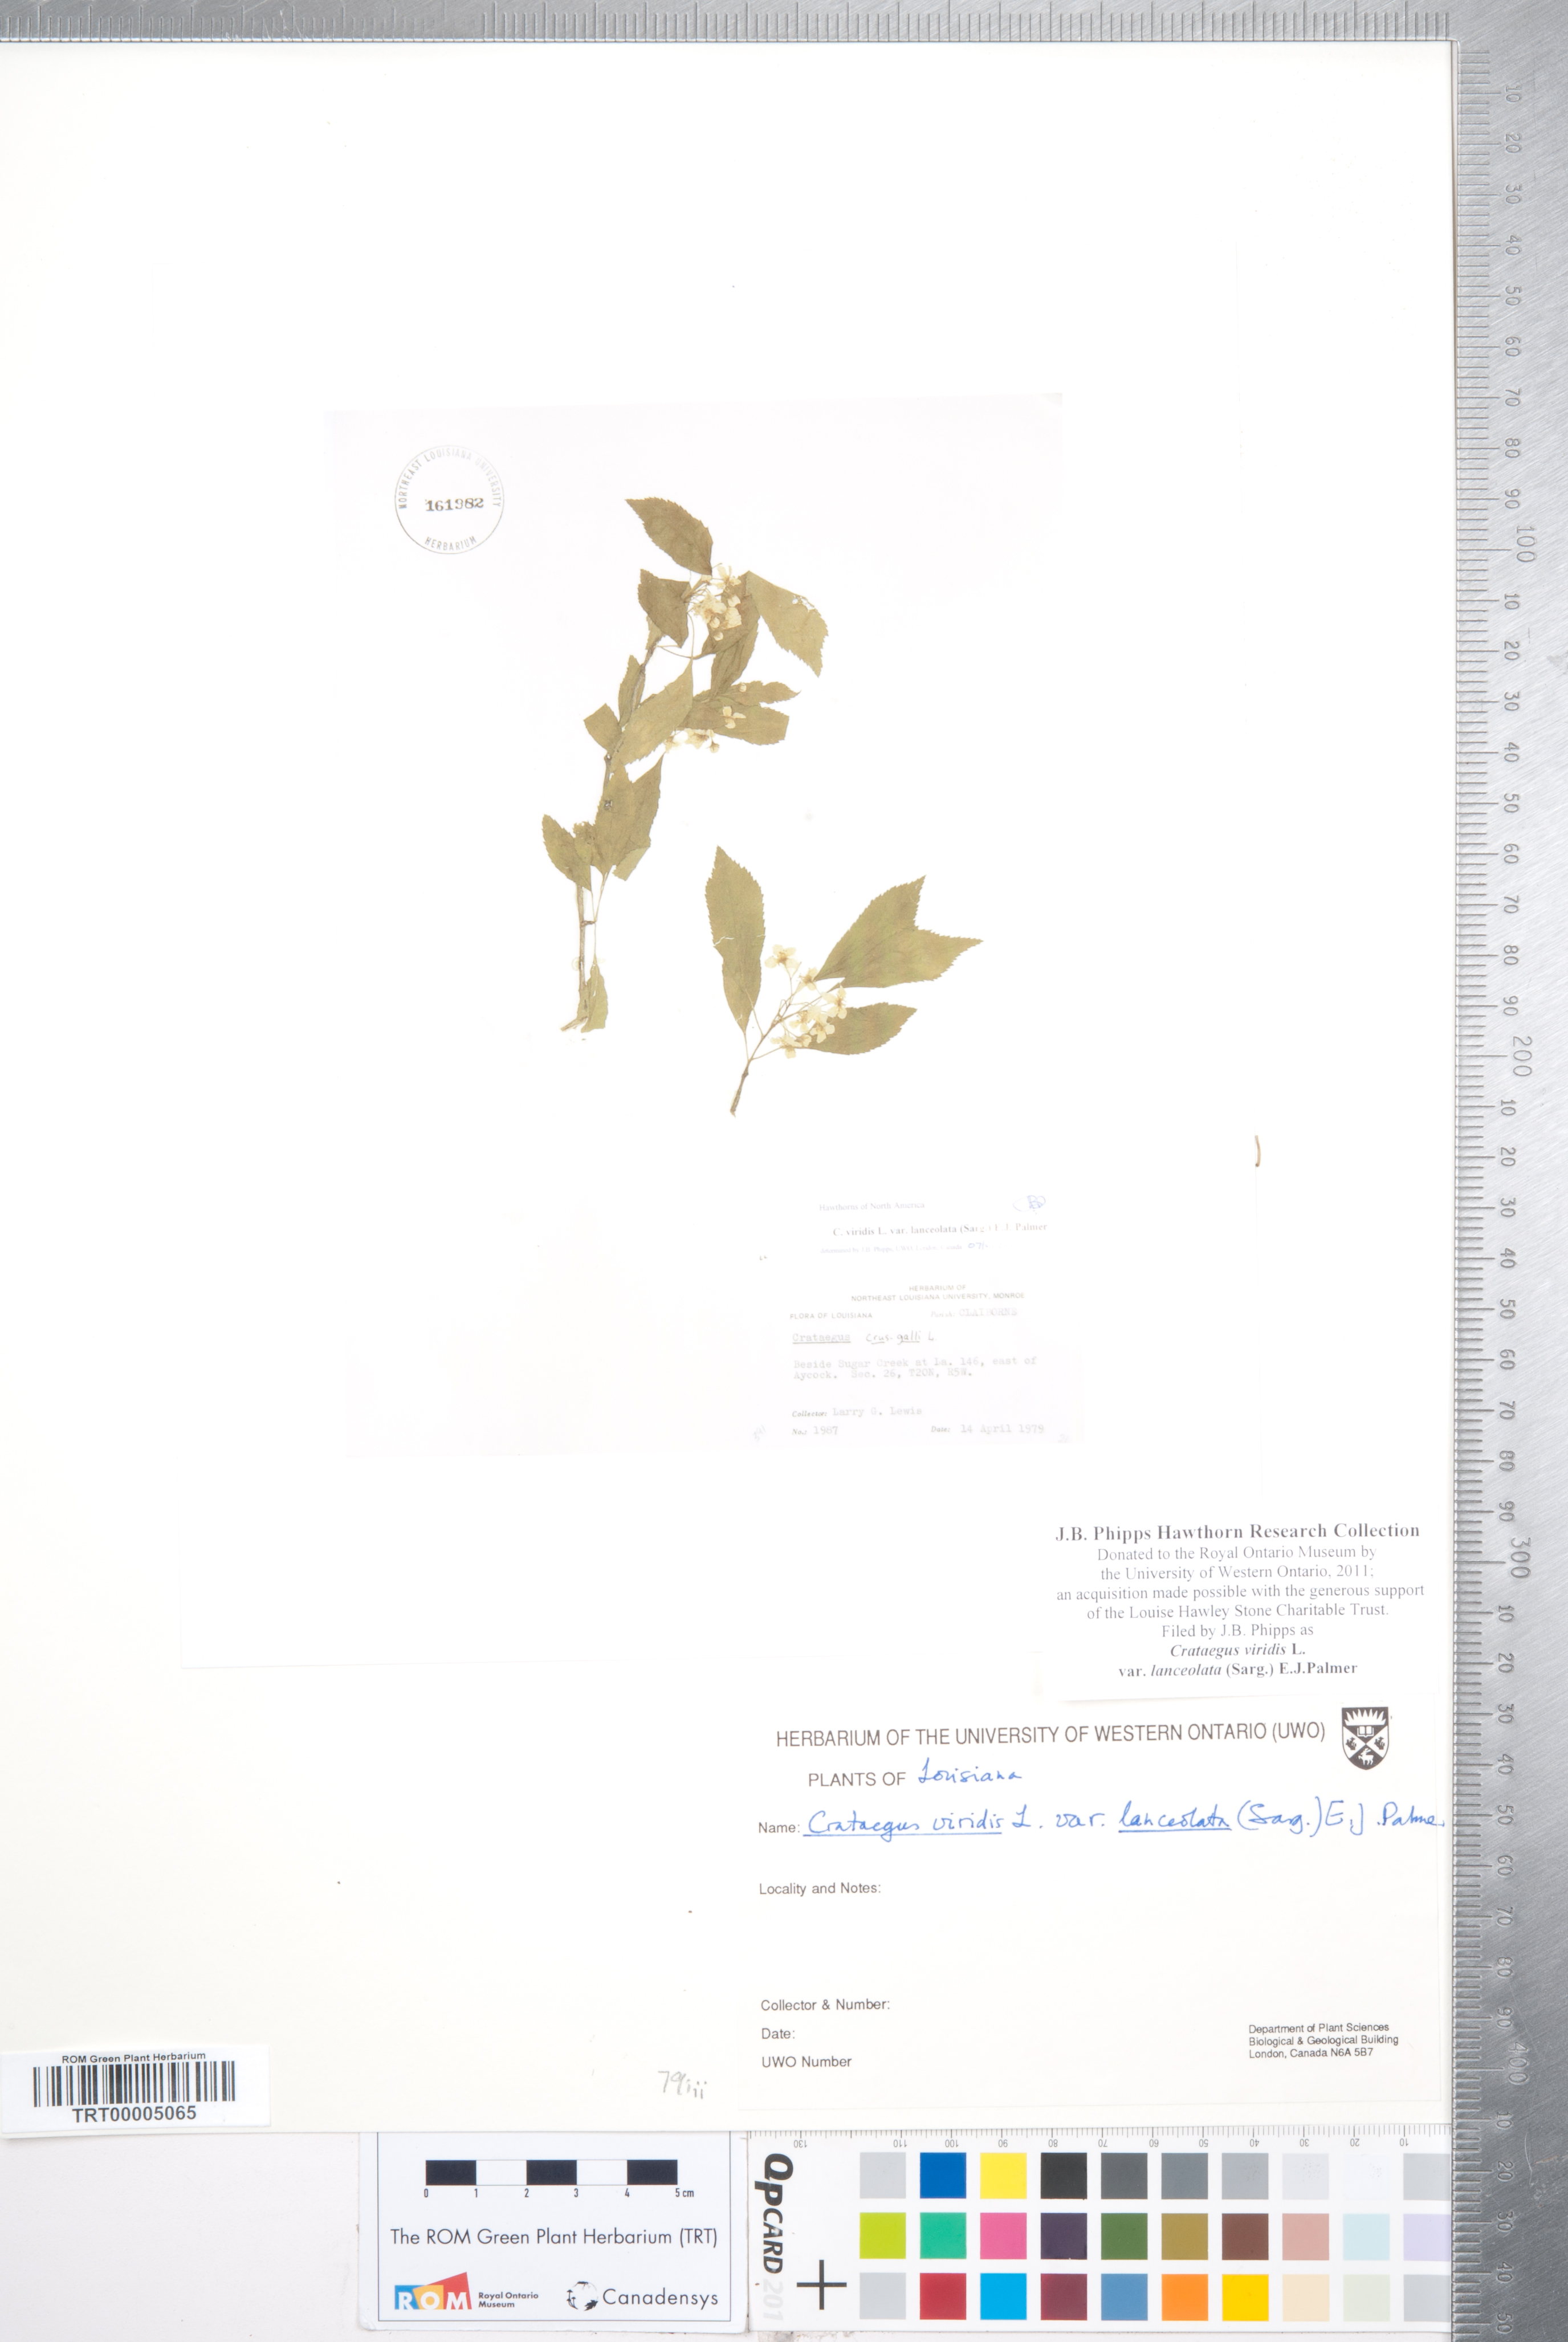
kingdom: Plantae
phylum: Tracheophyta
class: Magnoliopsida
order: Rosales
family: Rosaceae
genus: Crataegus
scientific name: Crataegus viridis
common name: Southernthorn
